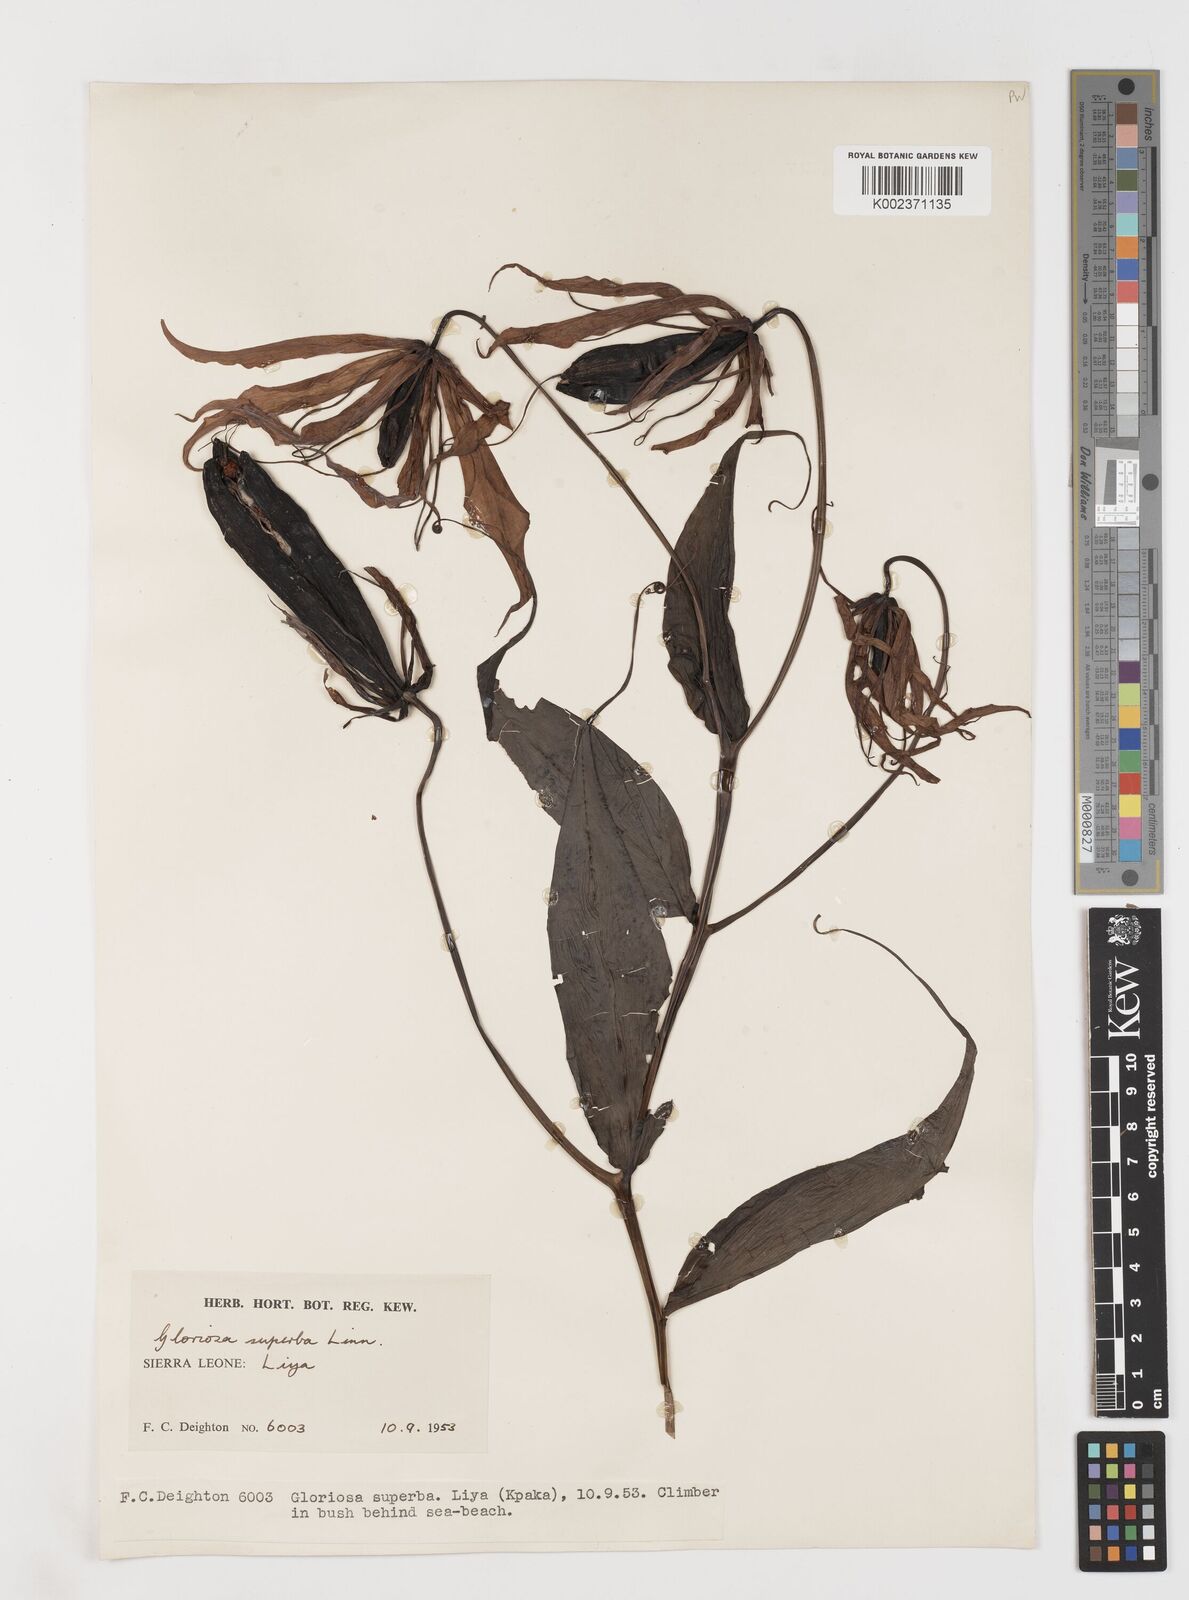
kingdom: Plantae
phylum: Tracheophyta
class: Liliopsida
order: Liliales
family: Colchicaceae
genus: Gloriosa
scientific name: Gloriosa simplex
